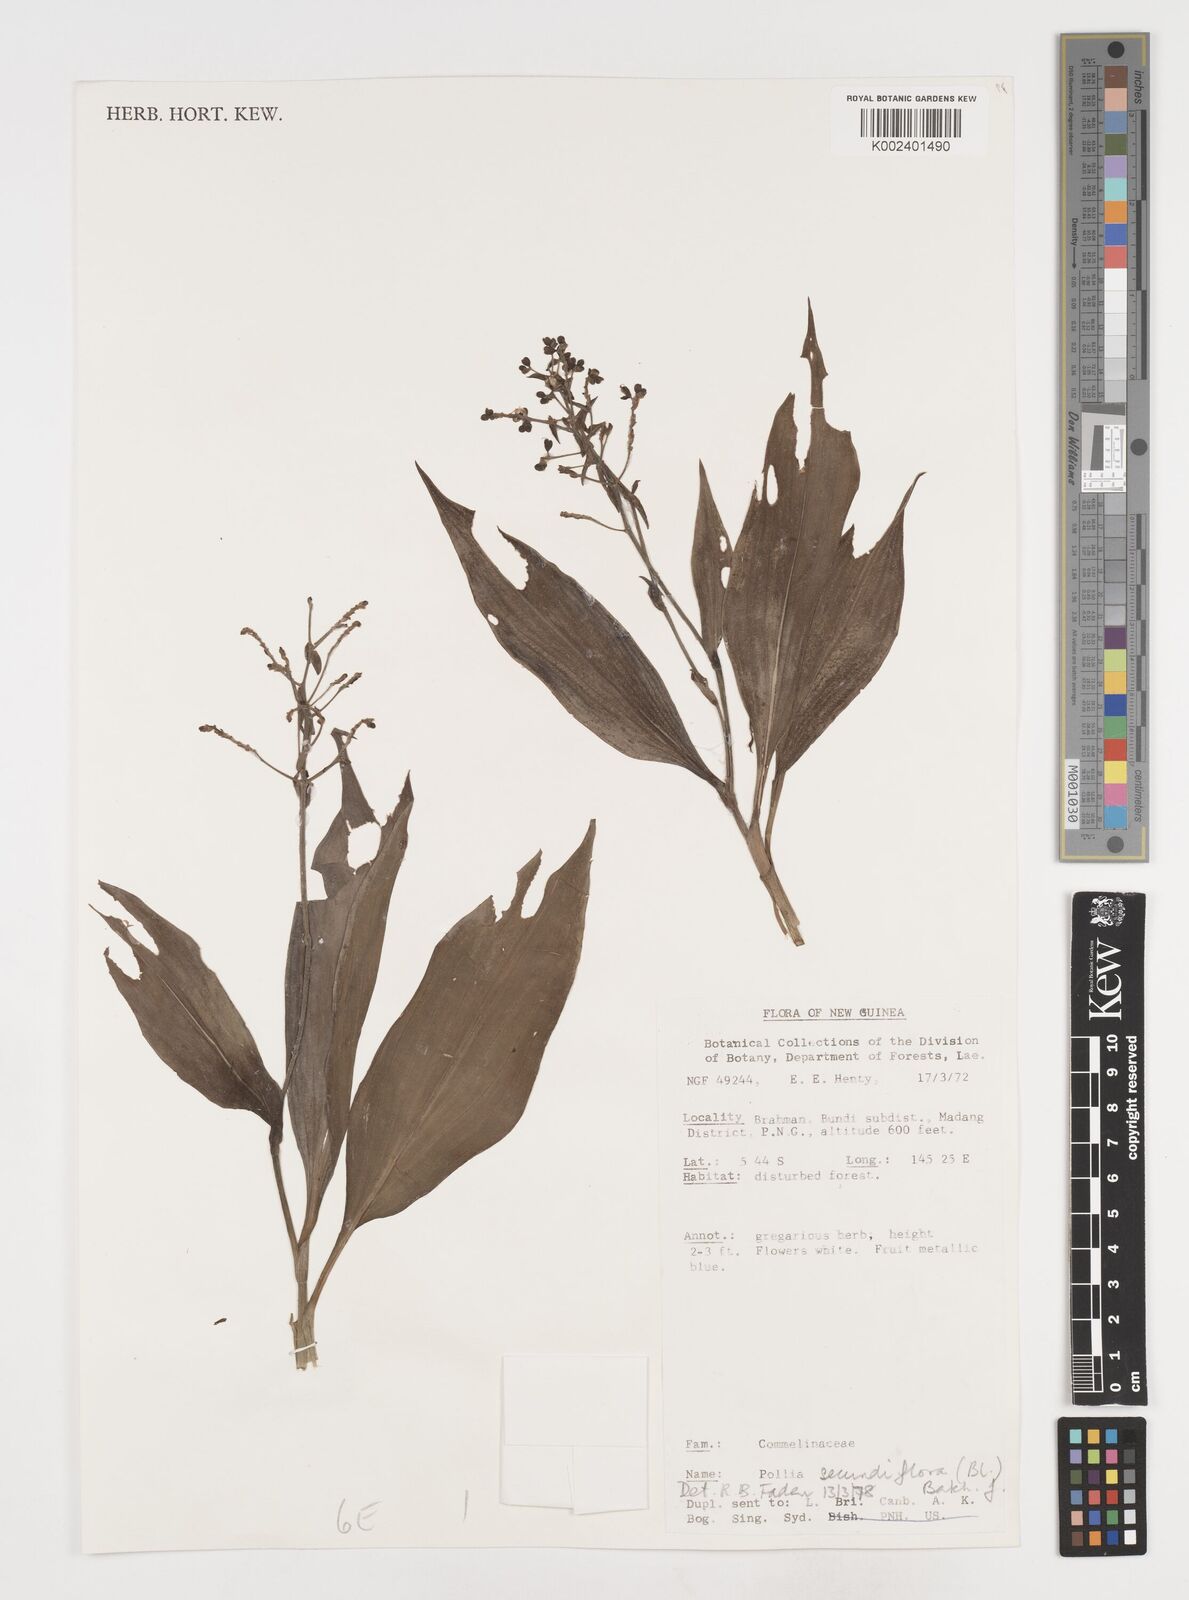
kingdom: Plantae
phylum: Tracheophyta
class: Liliopsida
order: Commelinales
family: Commelinaceae
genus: Pollia
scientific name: Pollia secundiflora
